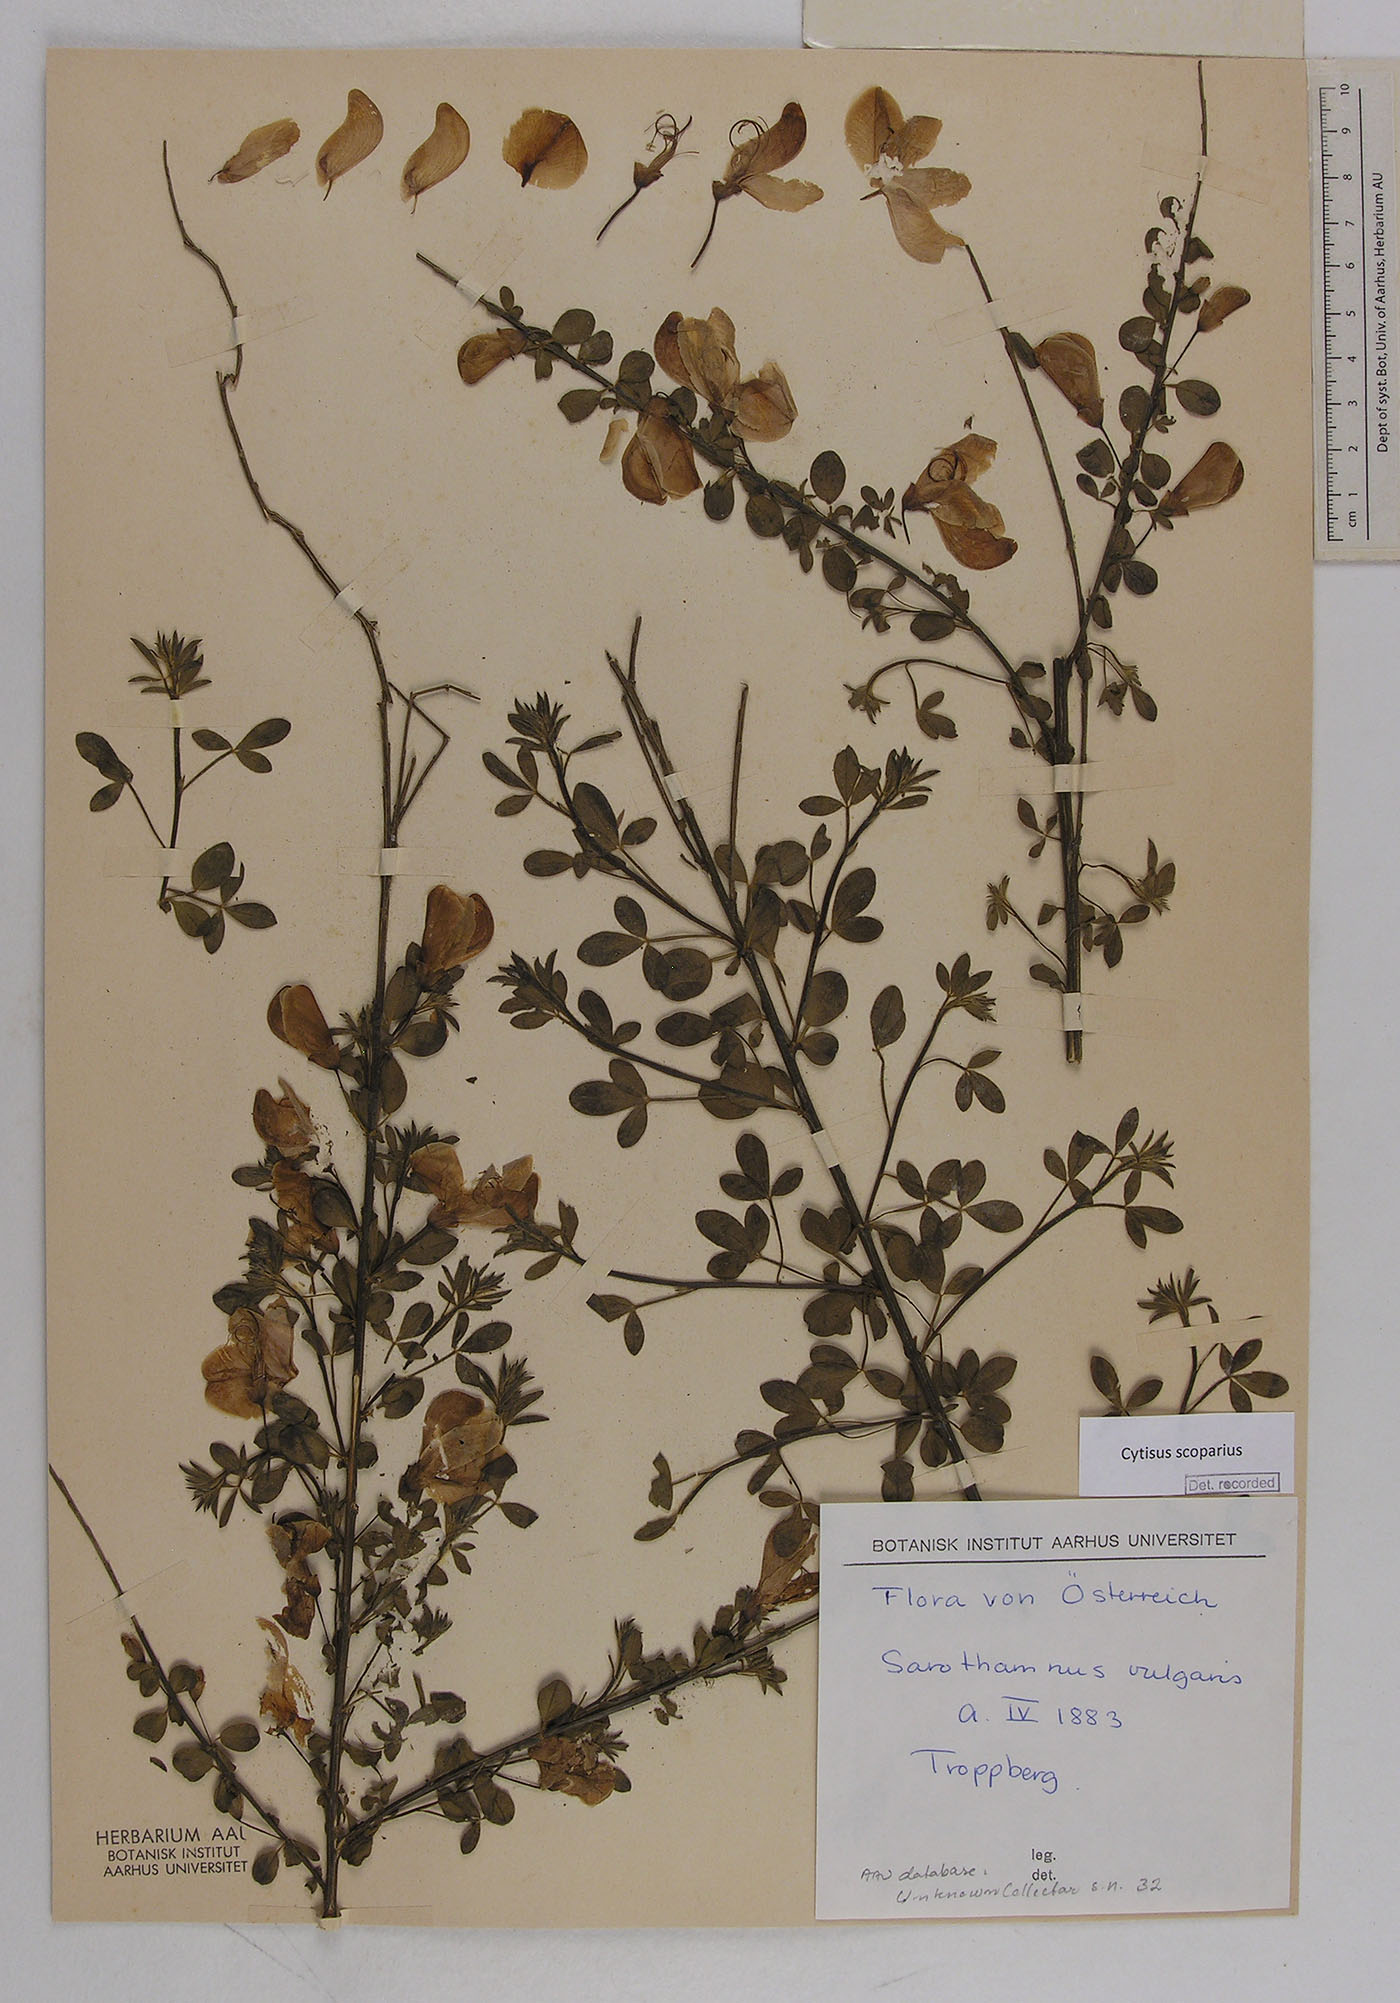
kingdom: Plantae
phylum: Tracheophyta
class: Magnoliopsida
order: Fabales
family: Fabaceae
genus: Cytisus
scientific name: Cytisus scoparius
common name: Scotch broom
